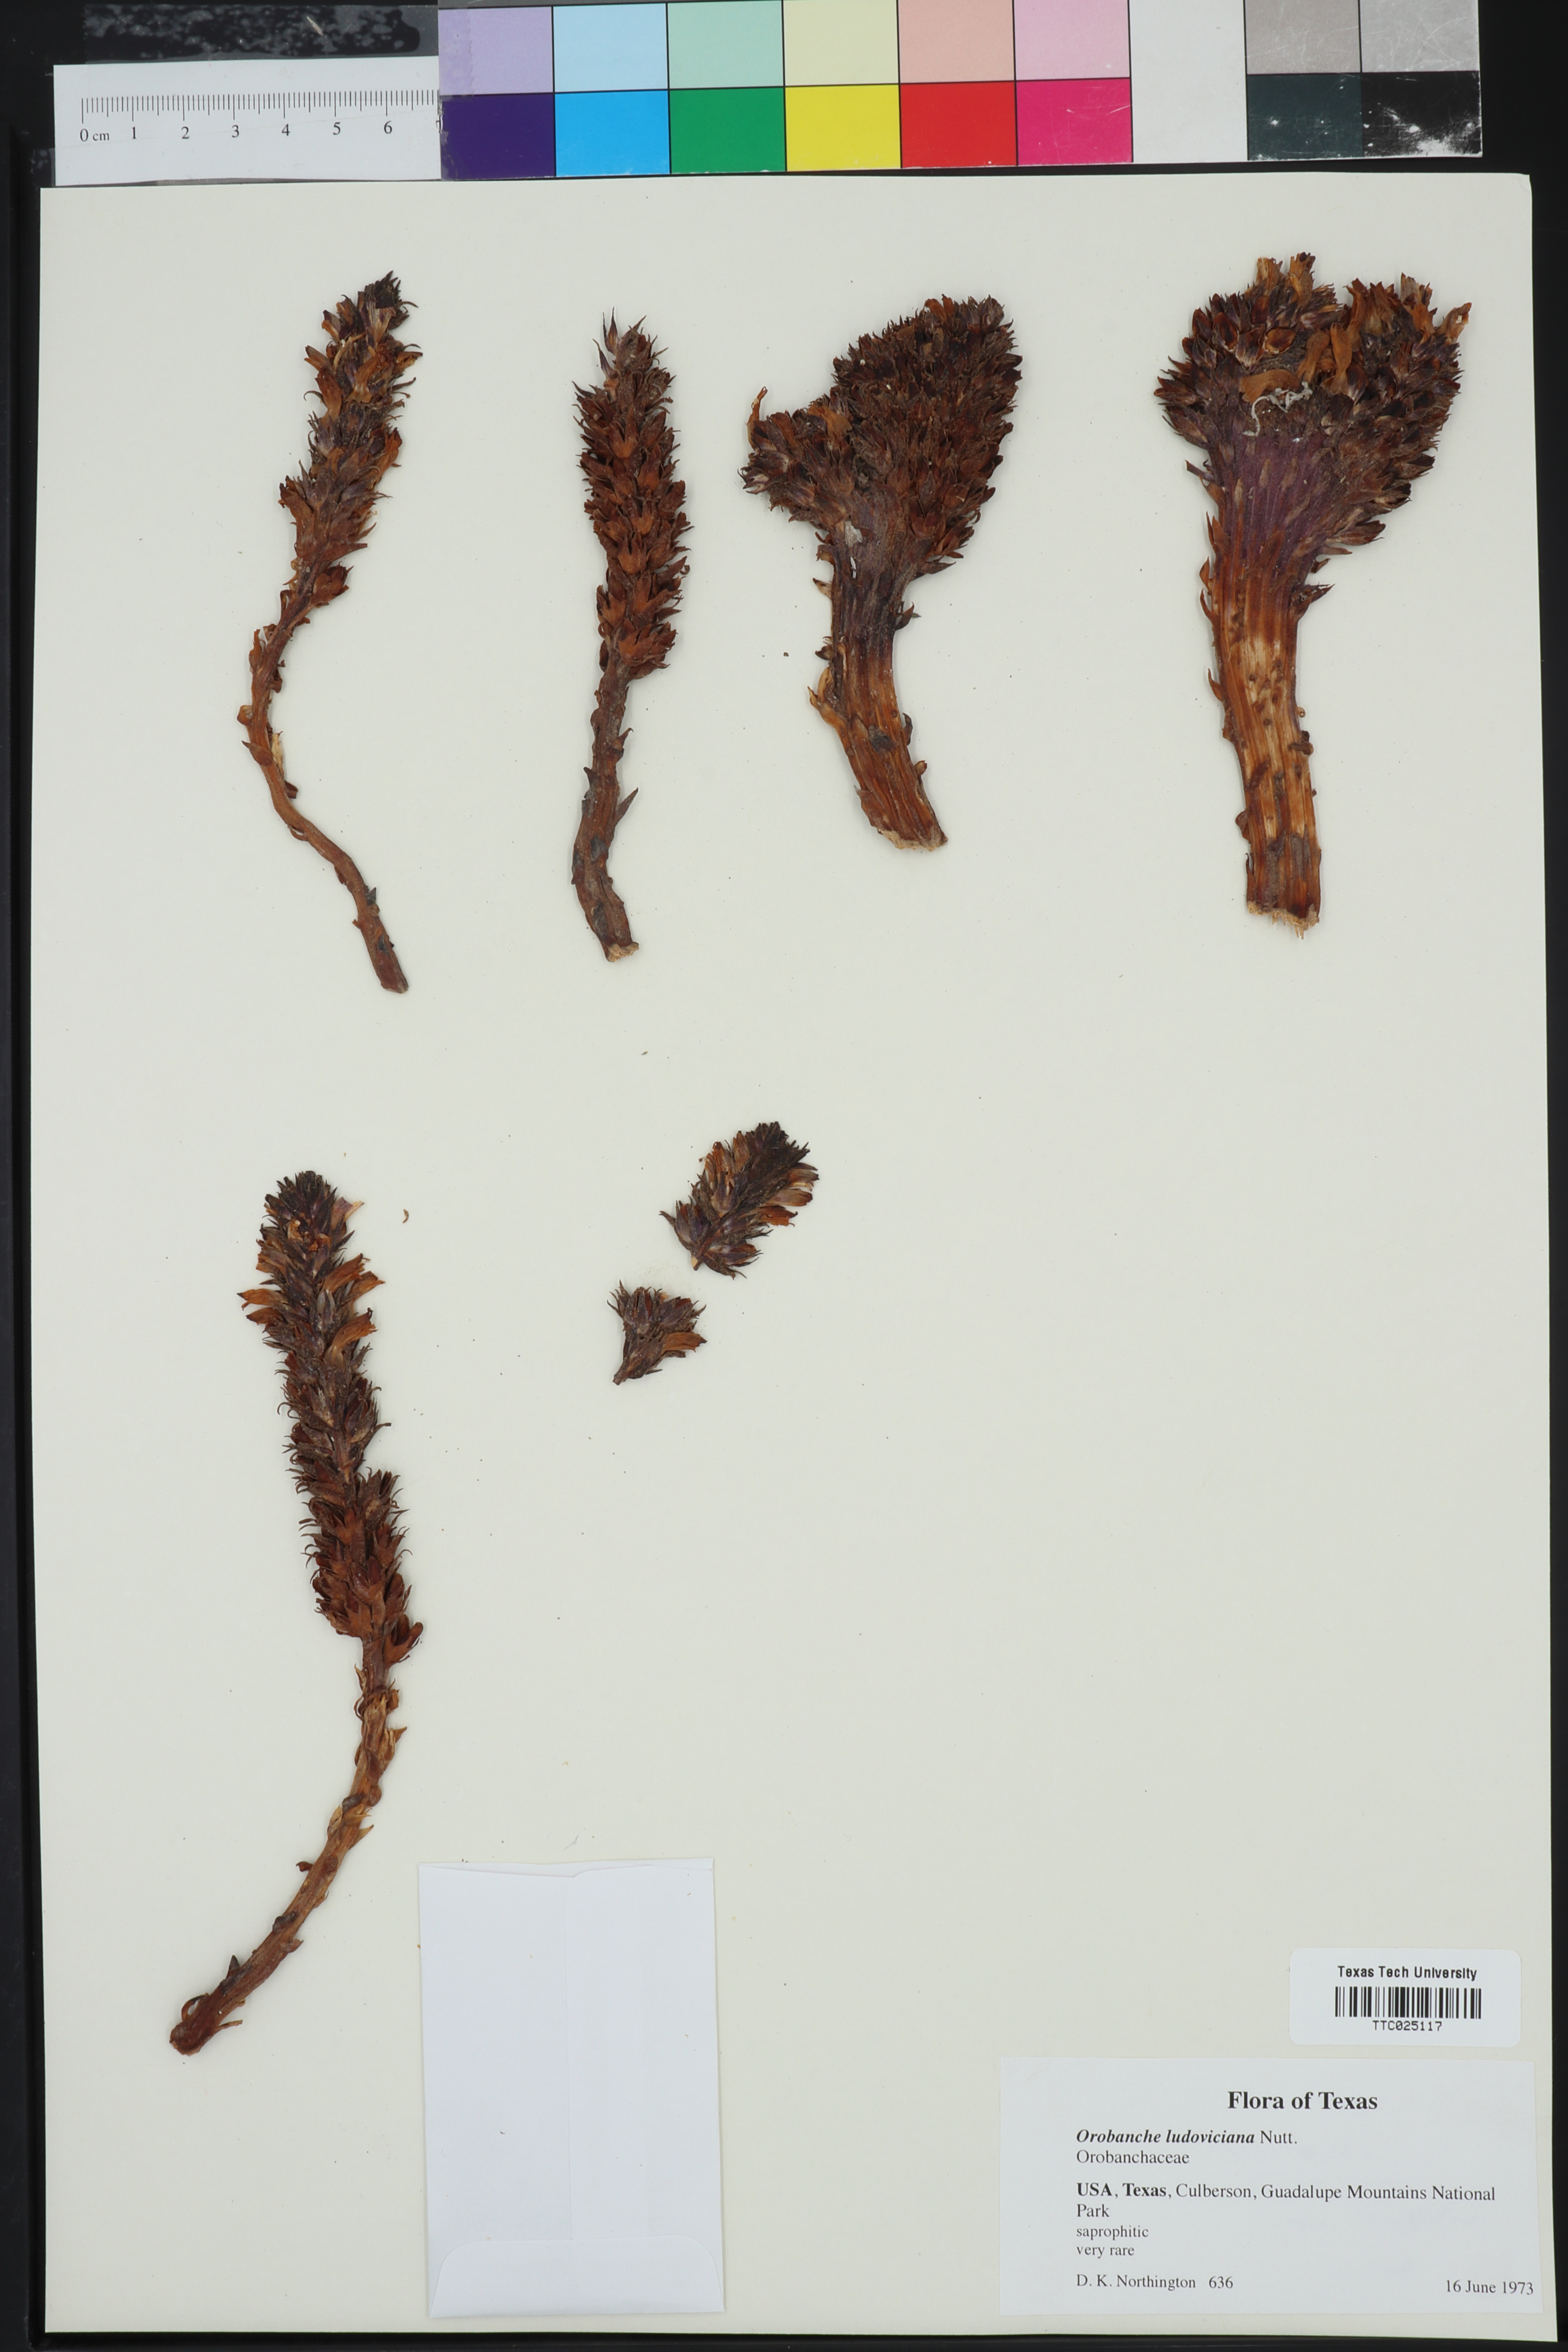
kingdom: Plantae
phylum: Tracheophyta
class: Magnoliopsida
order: Lamiales
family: Orobanchaceae
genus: Aphyllon
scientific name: Aphyllon ludovicianum
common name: Louisiana broomrape
